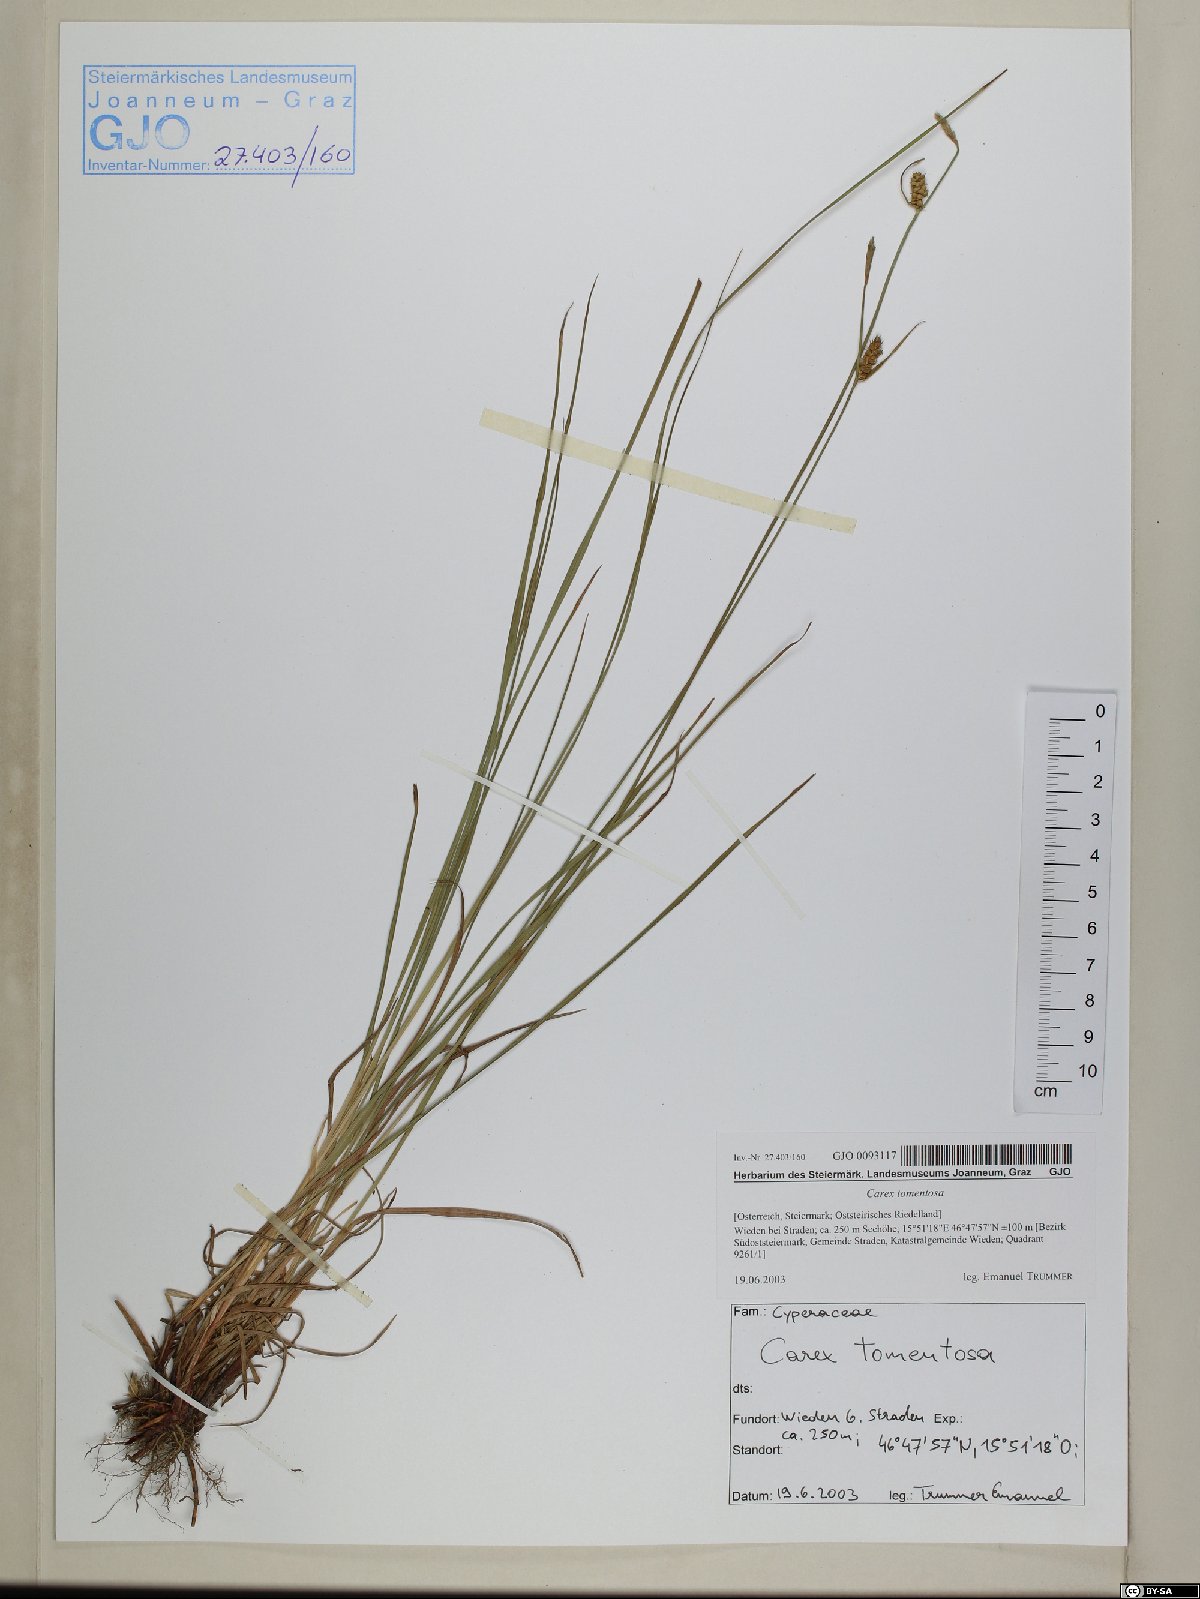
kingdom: Plantae
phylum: Tracheophyta
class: Liliopsida
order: Poales
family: Cyperaceae
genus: Carex
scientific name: Carex tomentosa
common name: Downy-fruited sedge
